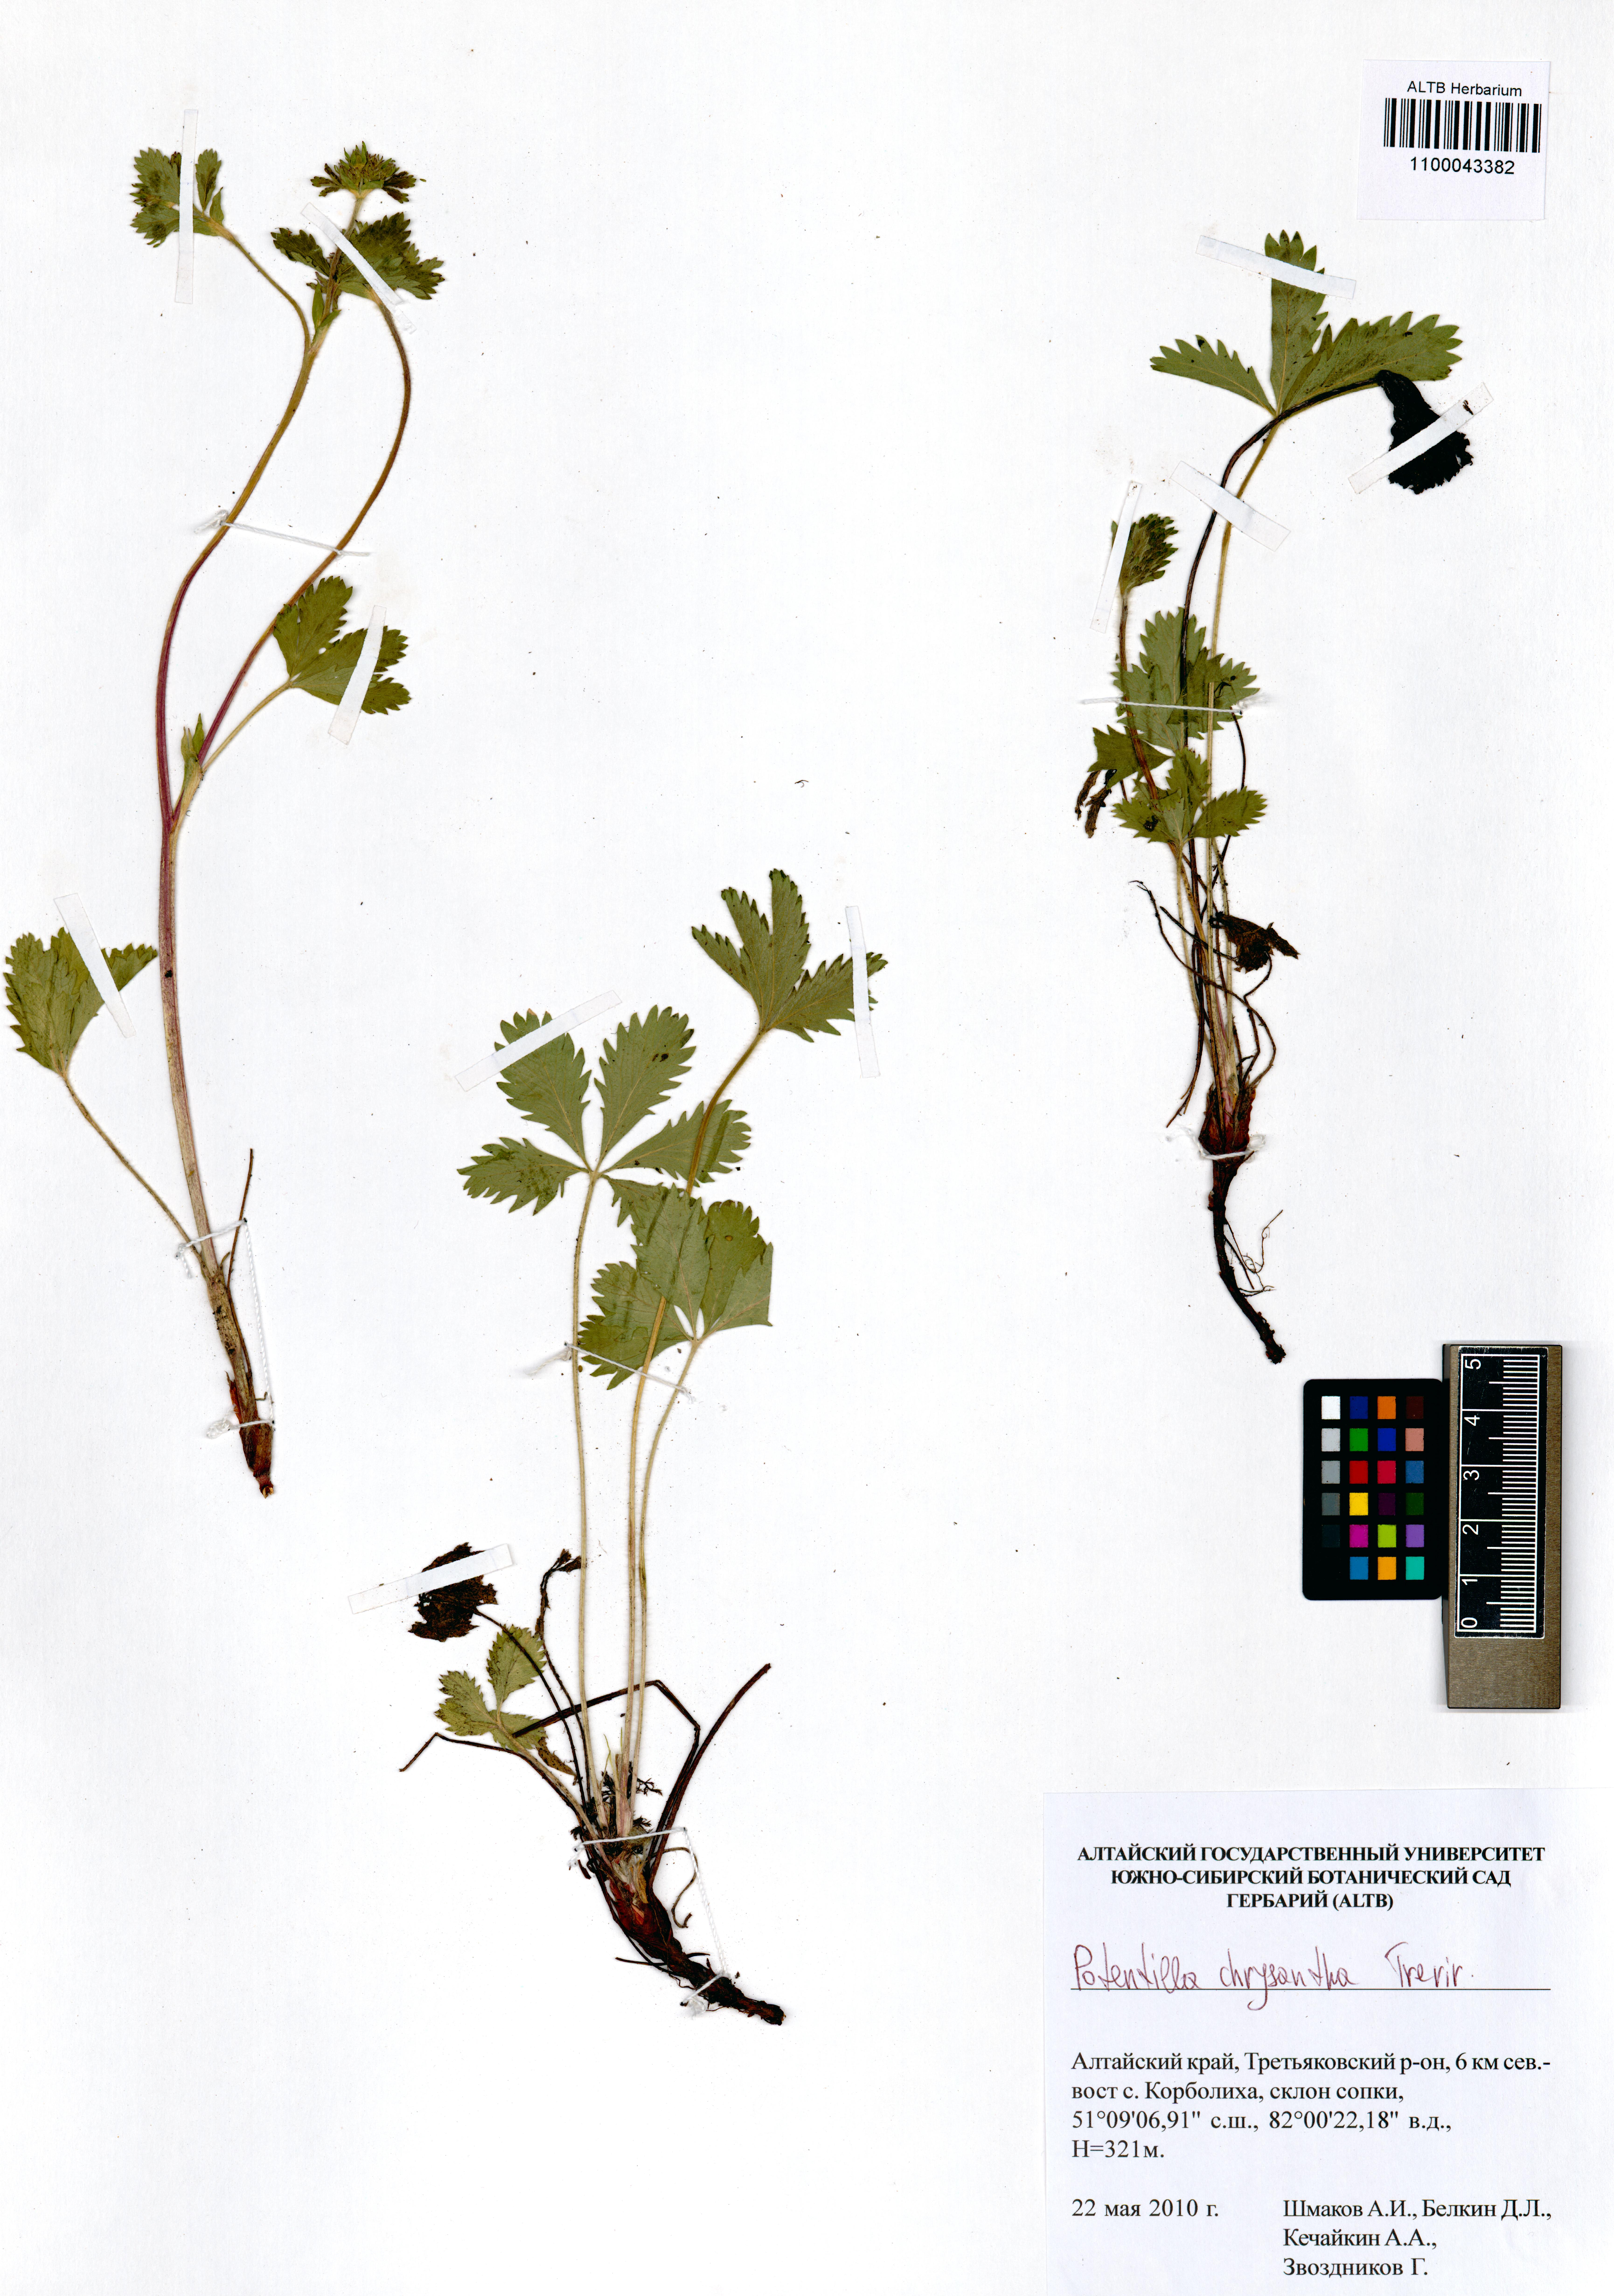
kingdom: Plantae
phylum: Tracheophyta
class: Magnoliopsida
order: Rosales
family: Rosaceae
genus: Potentilla
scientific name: Potentilla chrysantha
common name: Thuringian cinquefoil
